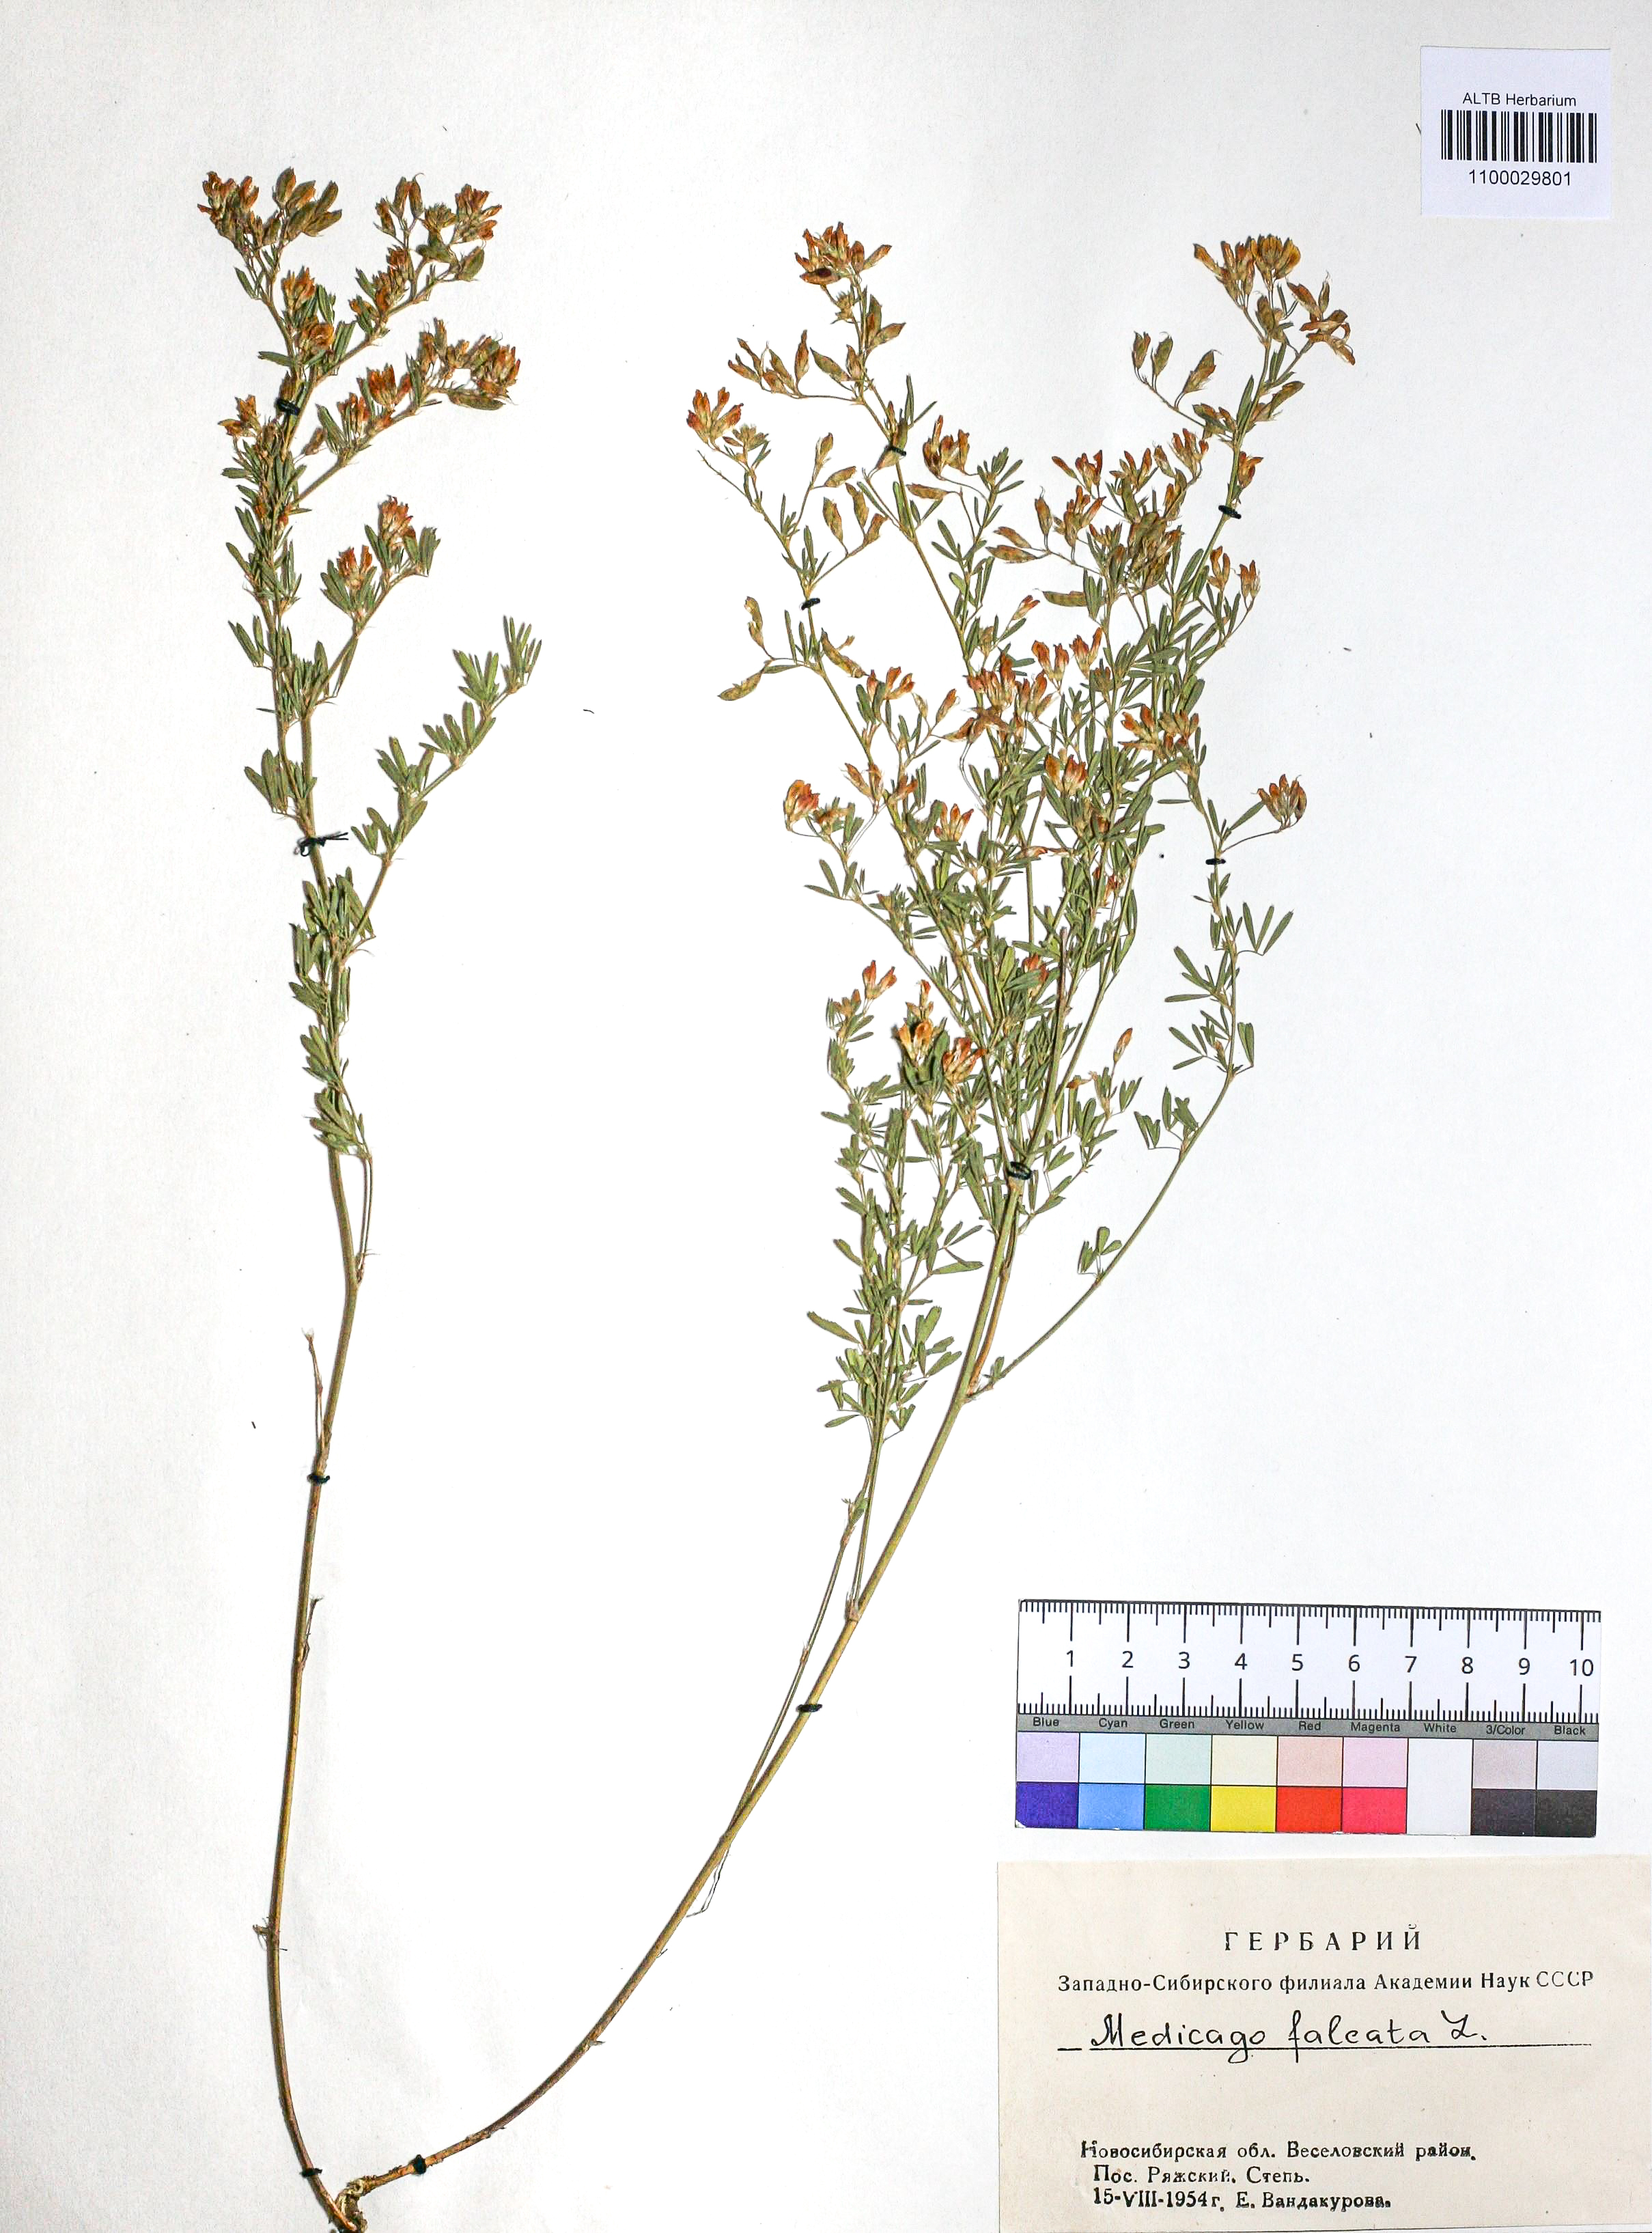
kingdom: Plantae
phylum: Tracheophyta
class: Magnoliopsida
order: Fabales
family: Fabaceae
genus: Medicago
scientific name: Medicago falcata
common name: Sickle medick
